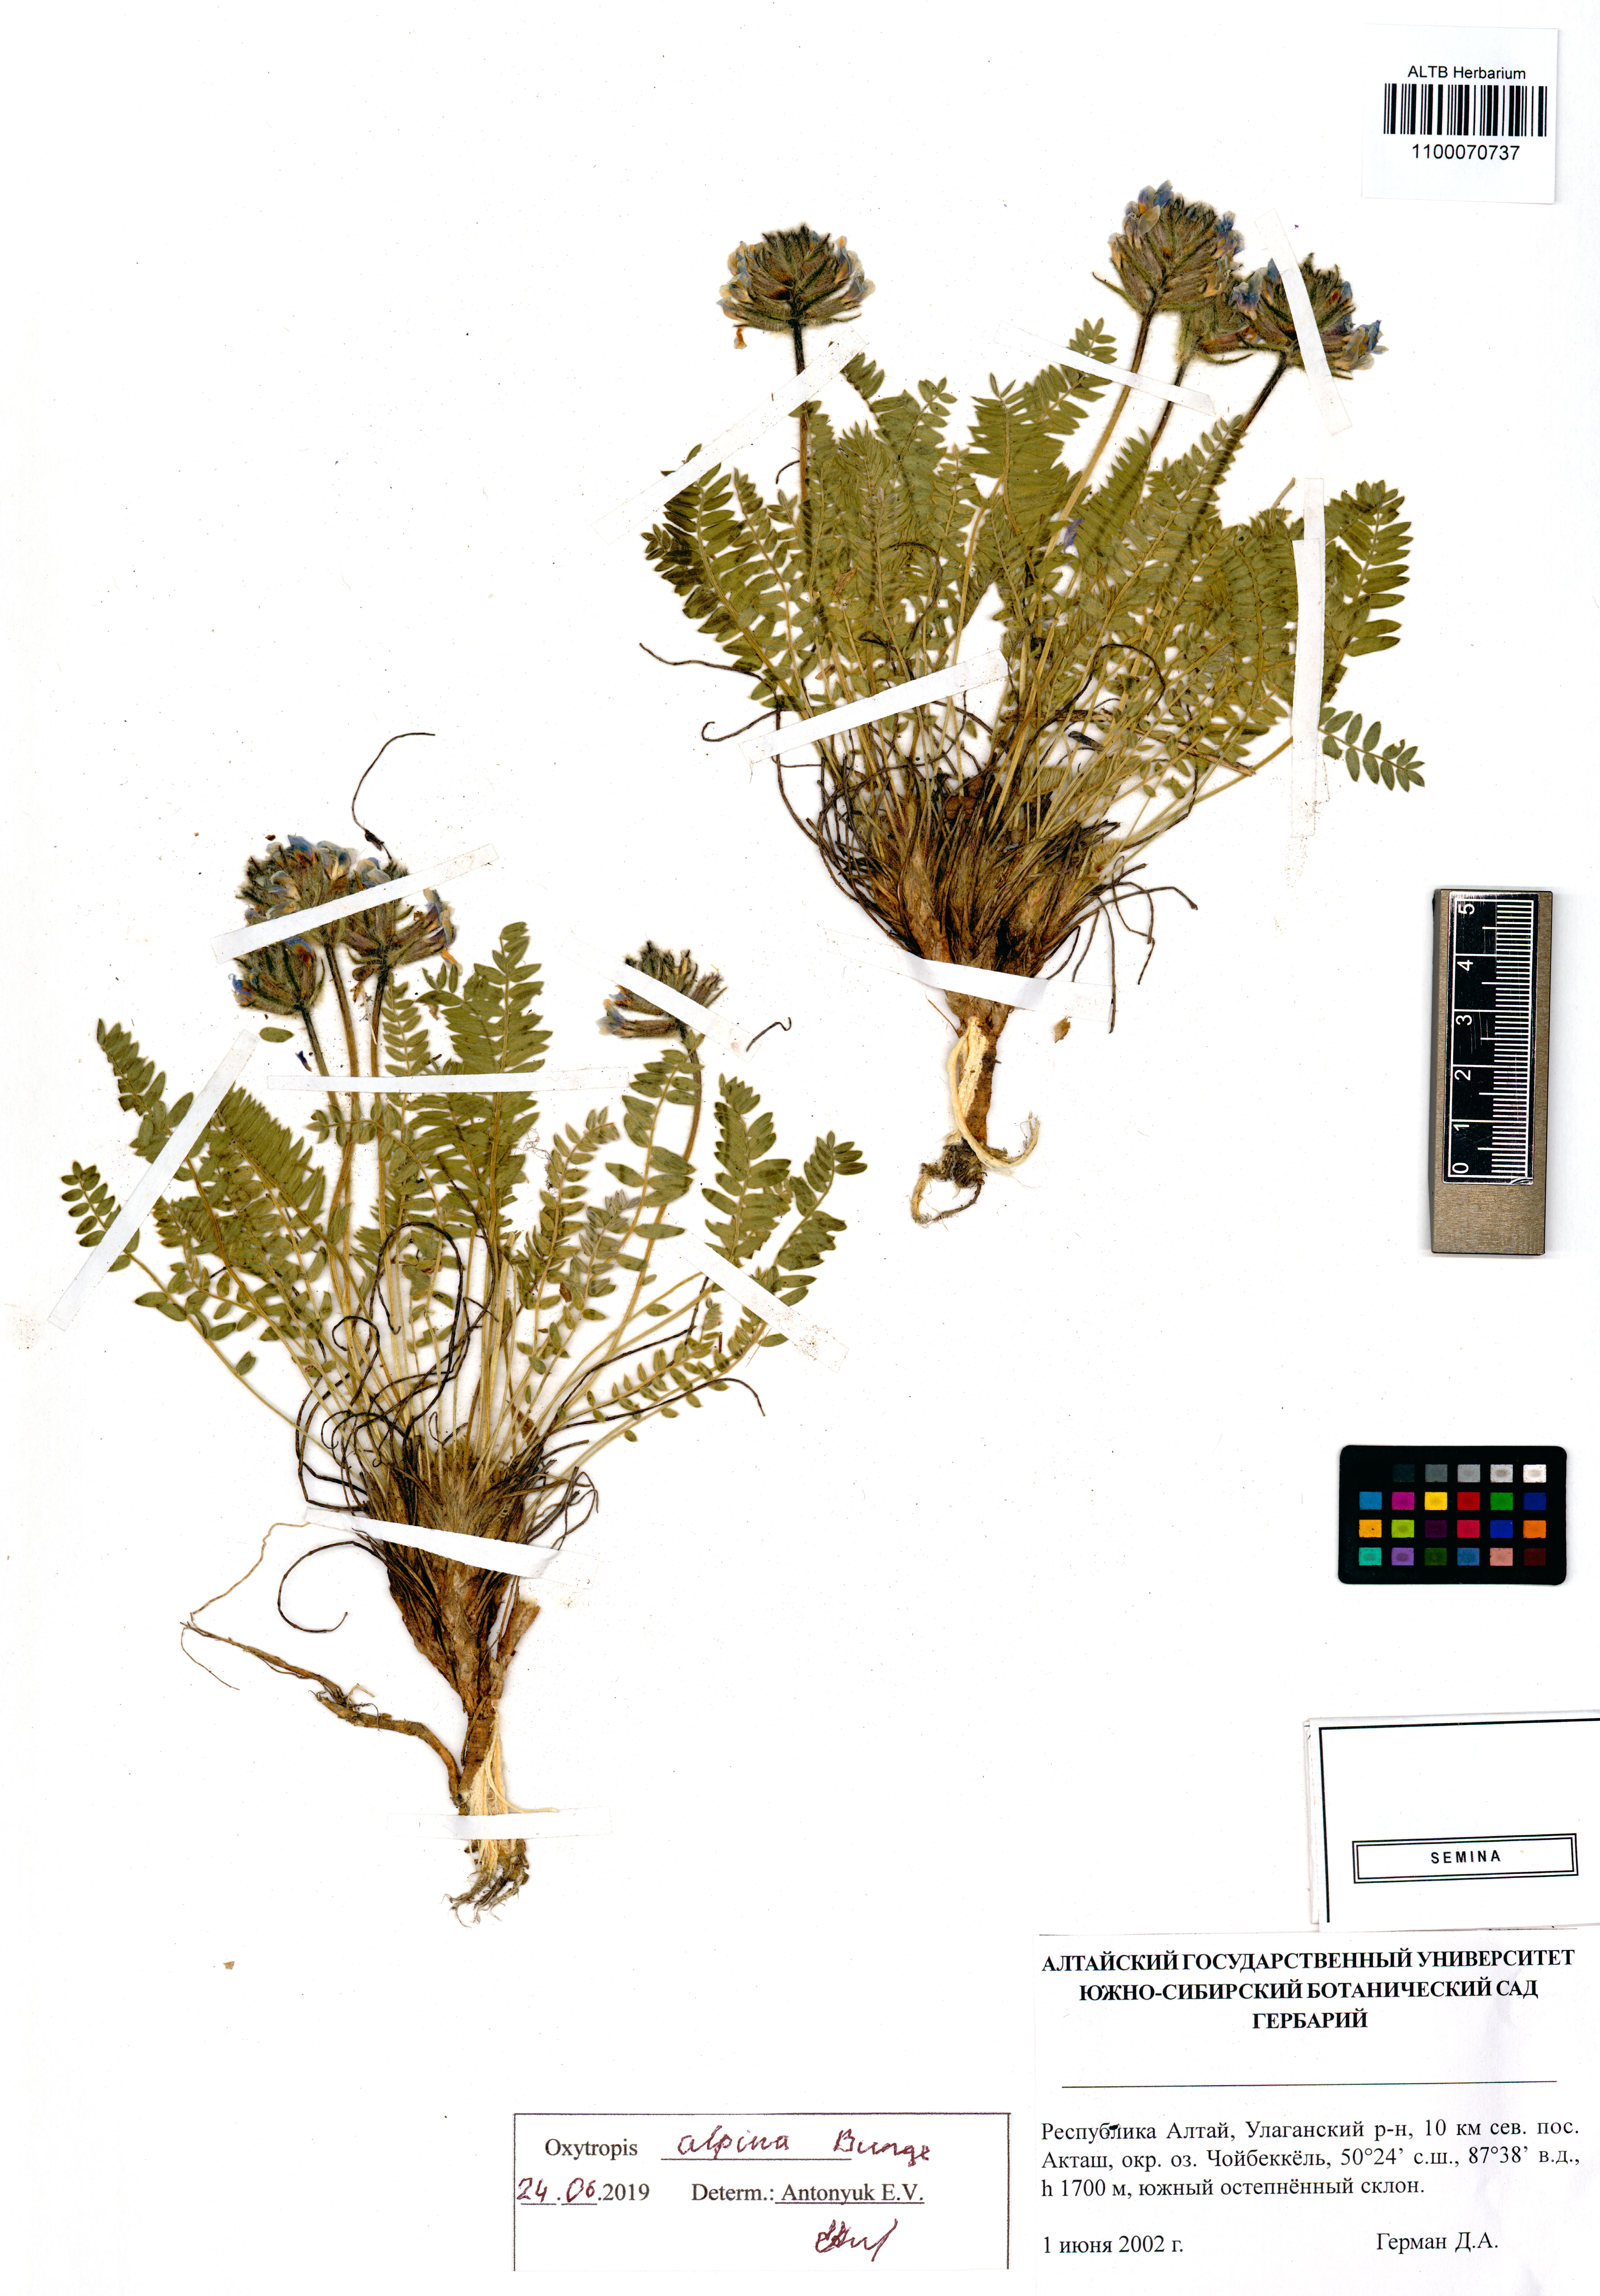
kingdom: Plantae
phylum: Tracheophyta
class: Magnoliopsida
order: Fabales
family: Fabaceae
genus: Oxytropis
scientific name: Oxytropis alpina
